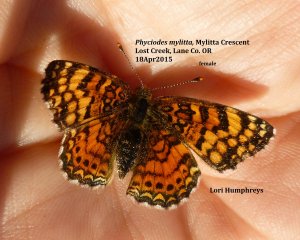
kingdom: Animalia
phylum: Arthropoda
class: Insecta
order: Lepidoptera
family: Nymphalidae
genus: Eresia
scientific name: Eresia aveyrona
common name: Mylitta Crescent
